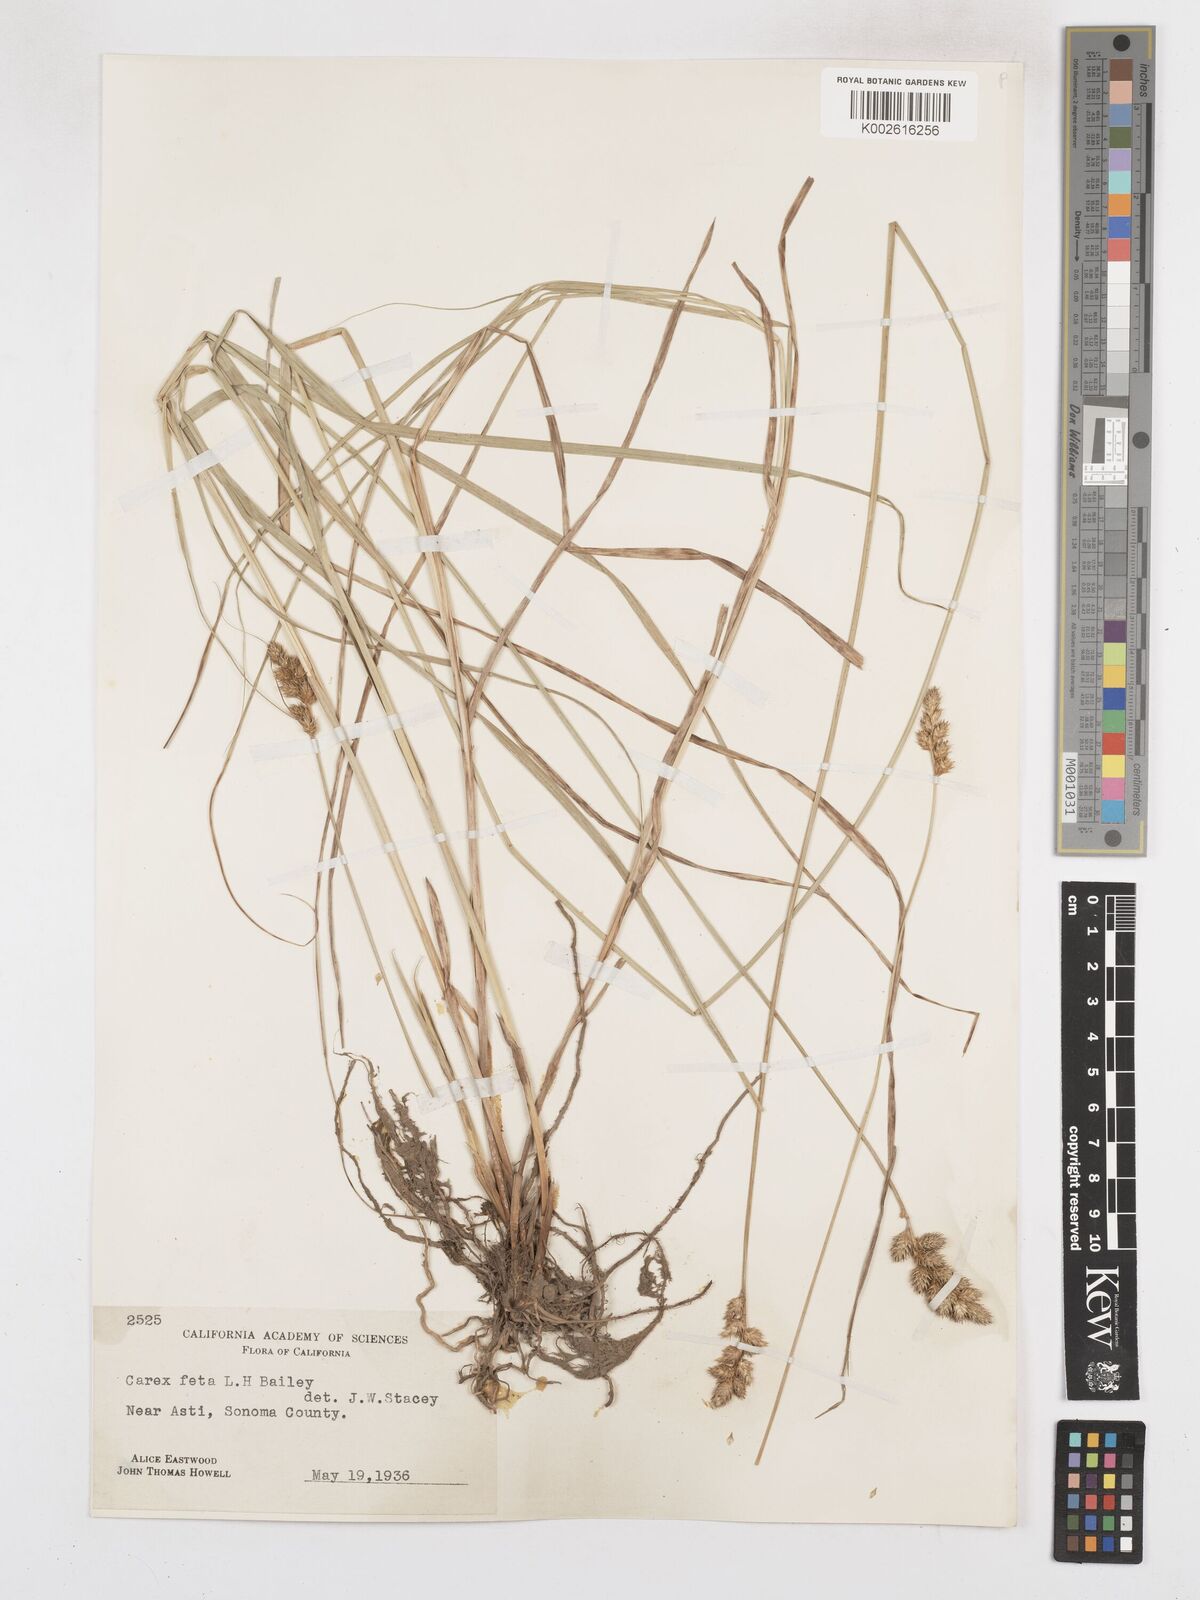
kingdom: Plantae
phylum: Tracheophyta
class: Liliopsida
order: Poales
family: Cyperaceae
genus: Carex
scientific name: Carex feta
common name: Green-sheathed sedge
